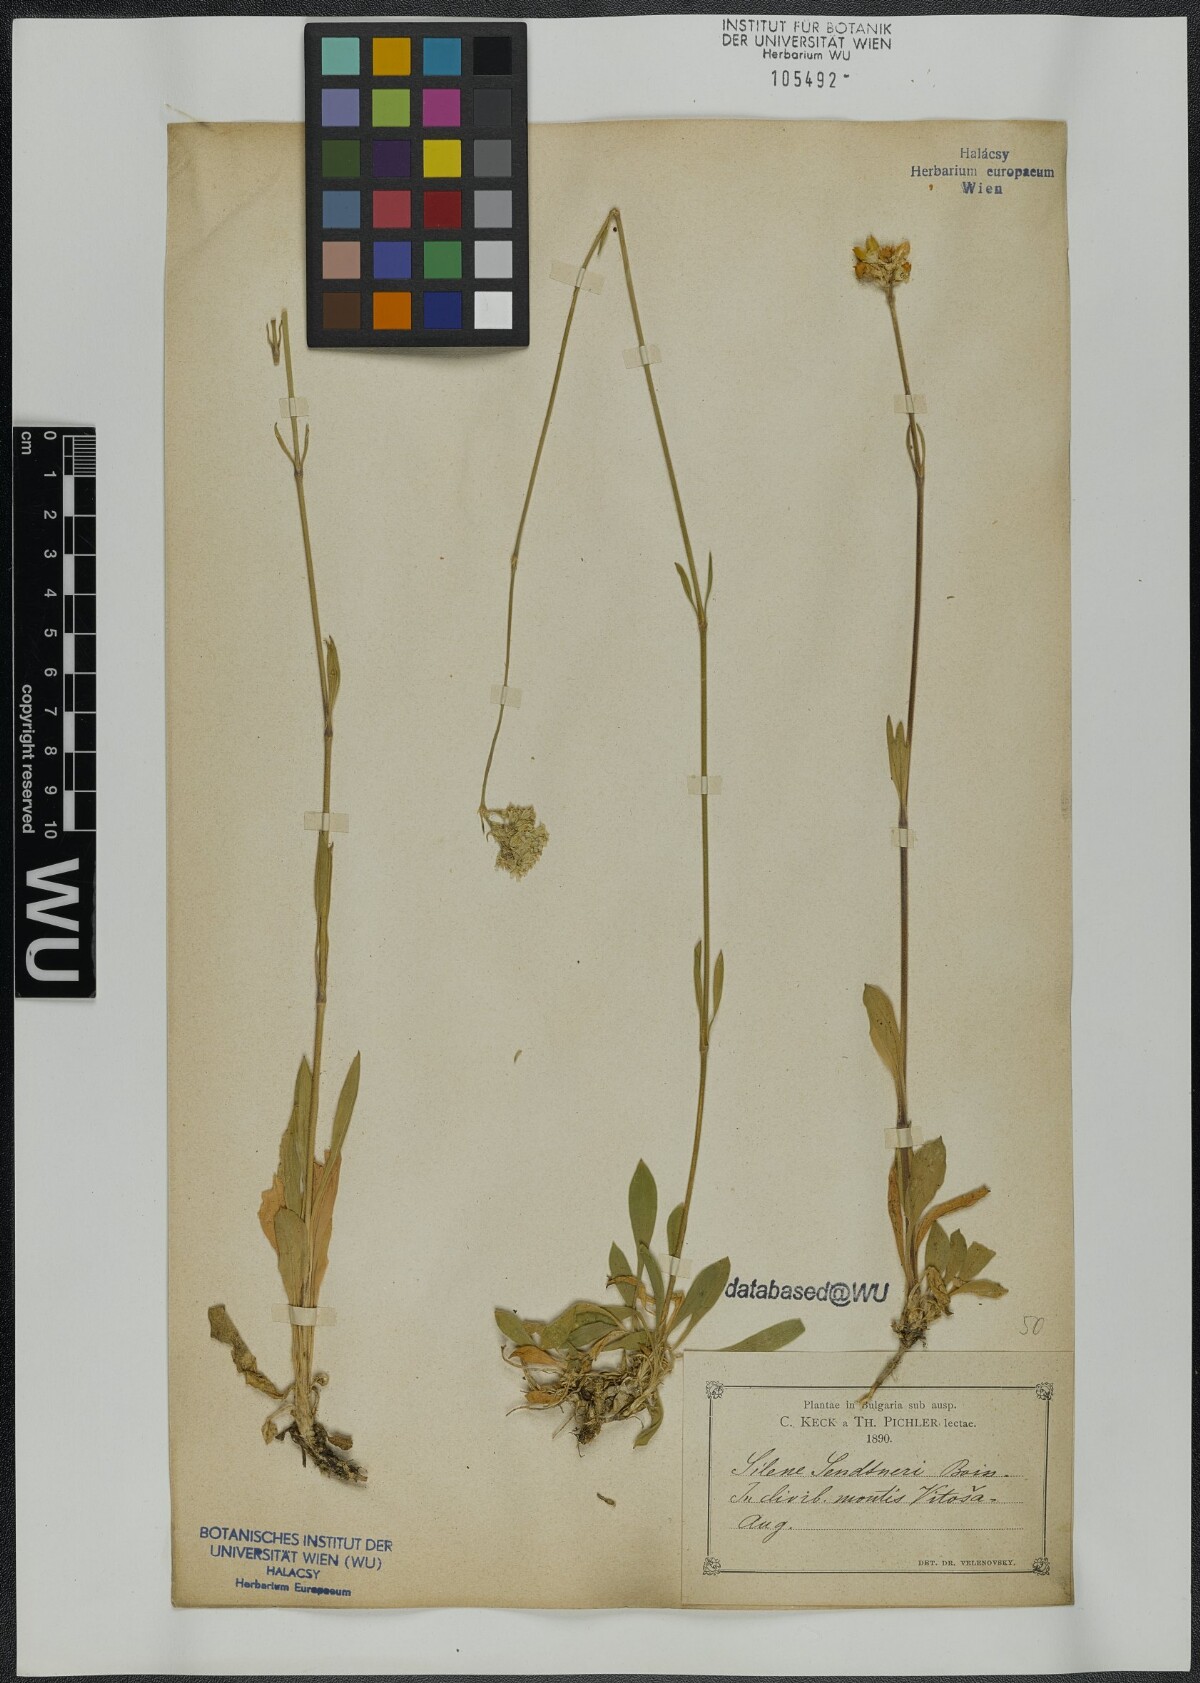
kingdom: Plantae
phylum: Tracheophyta
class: Magnoliopsida
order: Caryophyllales
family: Caryophyllaceae
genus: Silene
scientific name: Silene sendtneri
